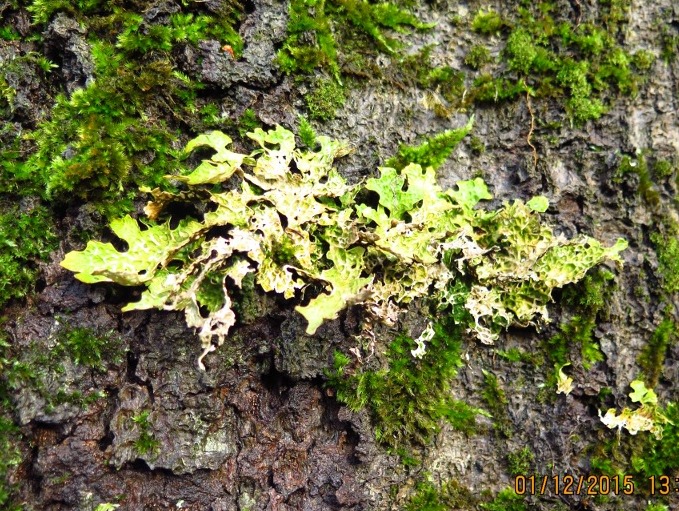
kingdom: Fungi
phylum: Ascomycota
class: Lecanoromycetes
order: Peltigerales
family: Lobariaceae
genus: Lobaria
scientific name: Lobaria pulmonaria
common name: almindelig lungelav
